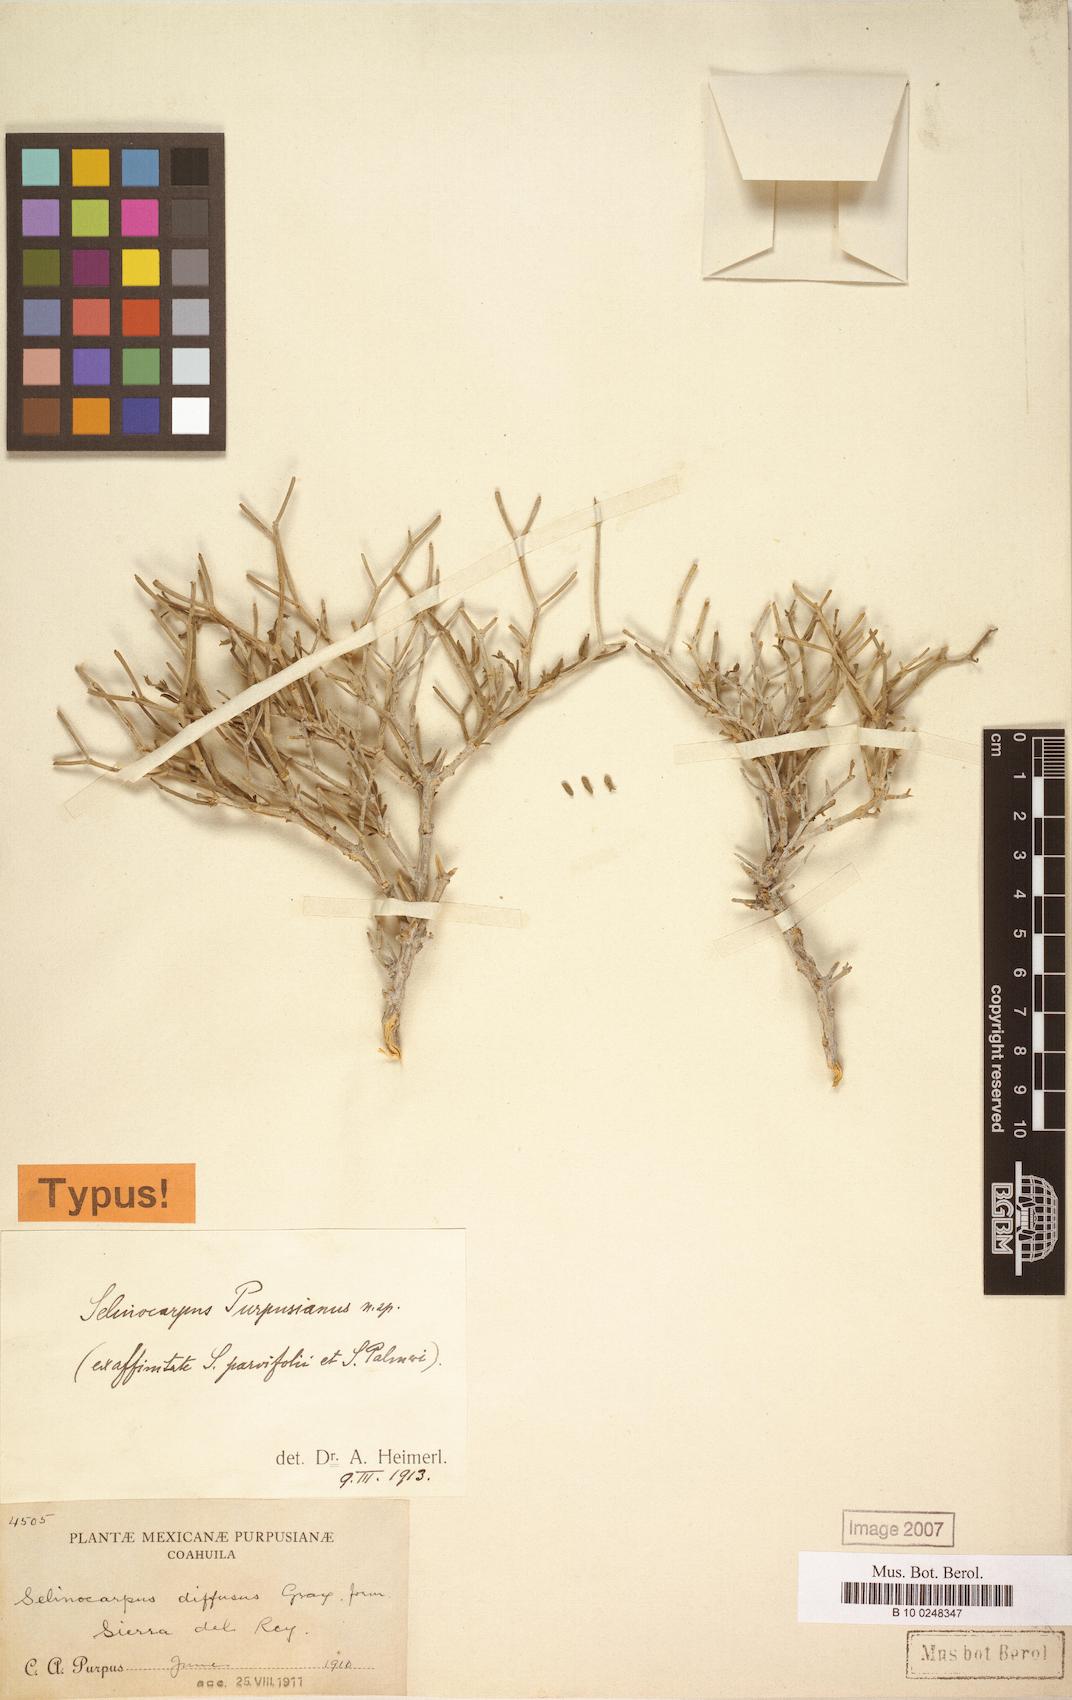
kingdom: Plantae
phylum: Tracheophyta
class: Magnoliopsida
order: Caryophyllales
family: Nyctaginaceae
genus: Acleisanthes
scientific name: Acleisanthes purpusiana
